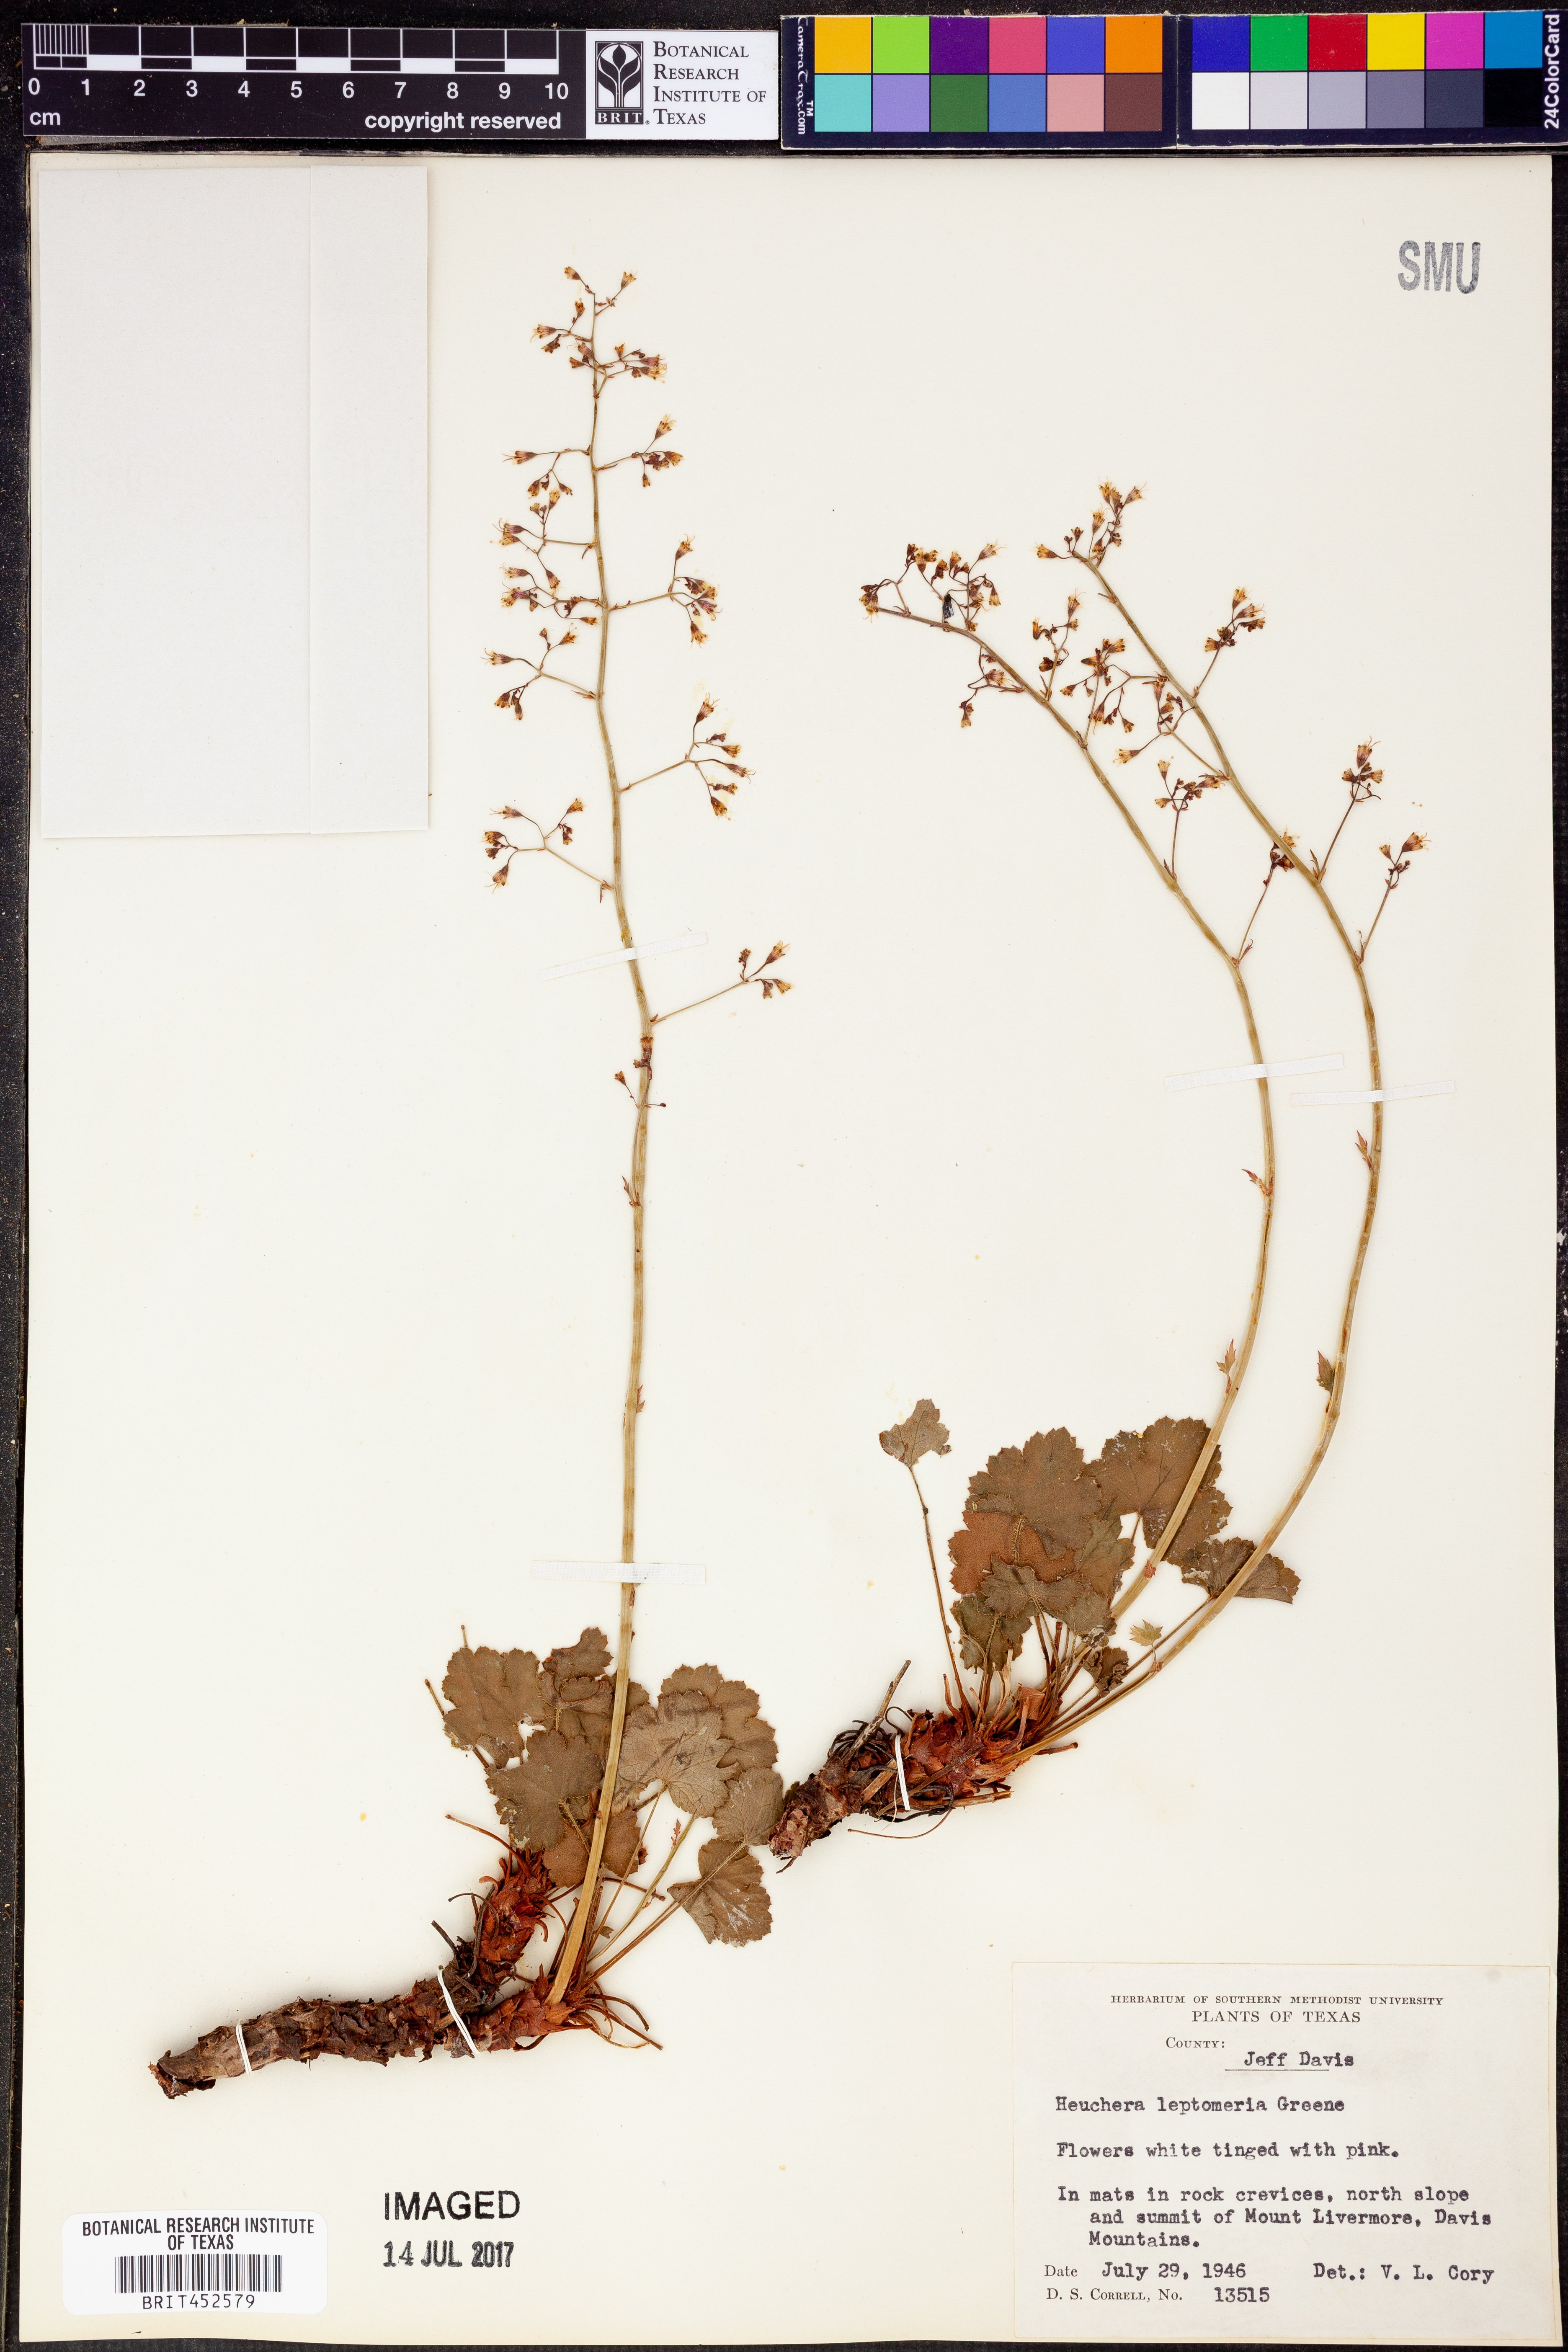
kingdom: Plantae
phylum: Tracheophyta
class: Magnoliopsida
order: Saxifragales
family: Saxifragaceae
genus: Heuchera
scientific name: Heuchera rubescens
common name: Jack-o'the-rocks
